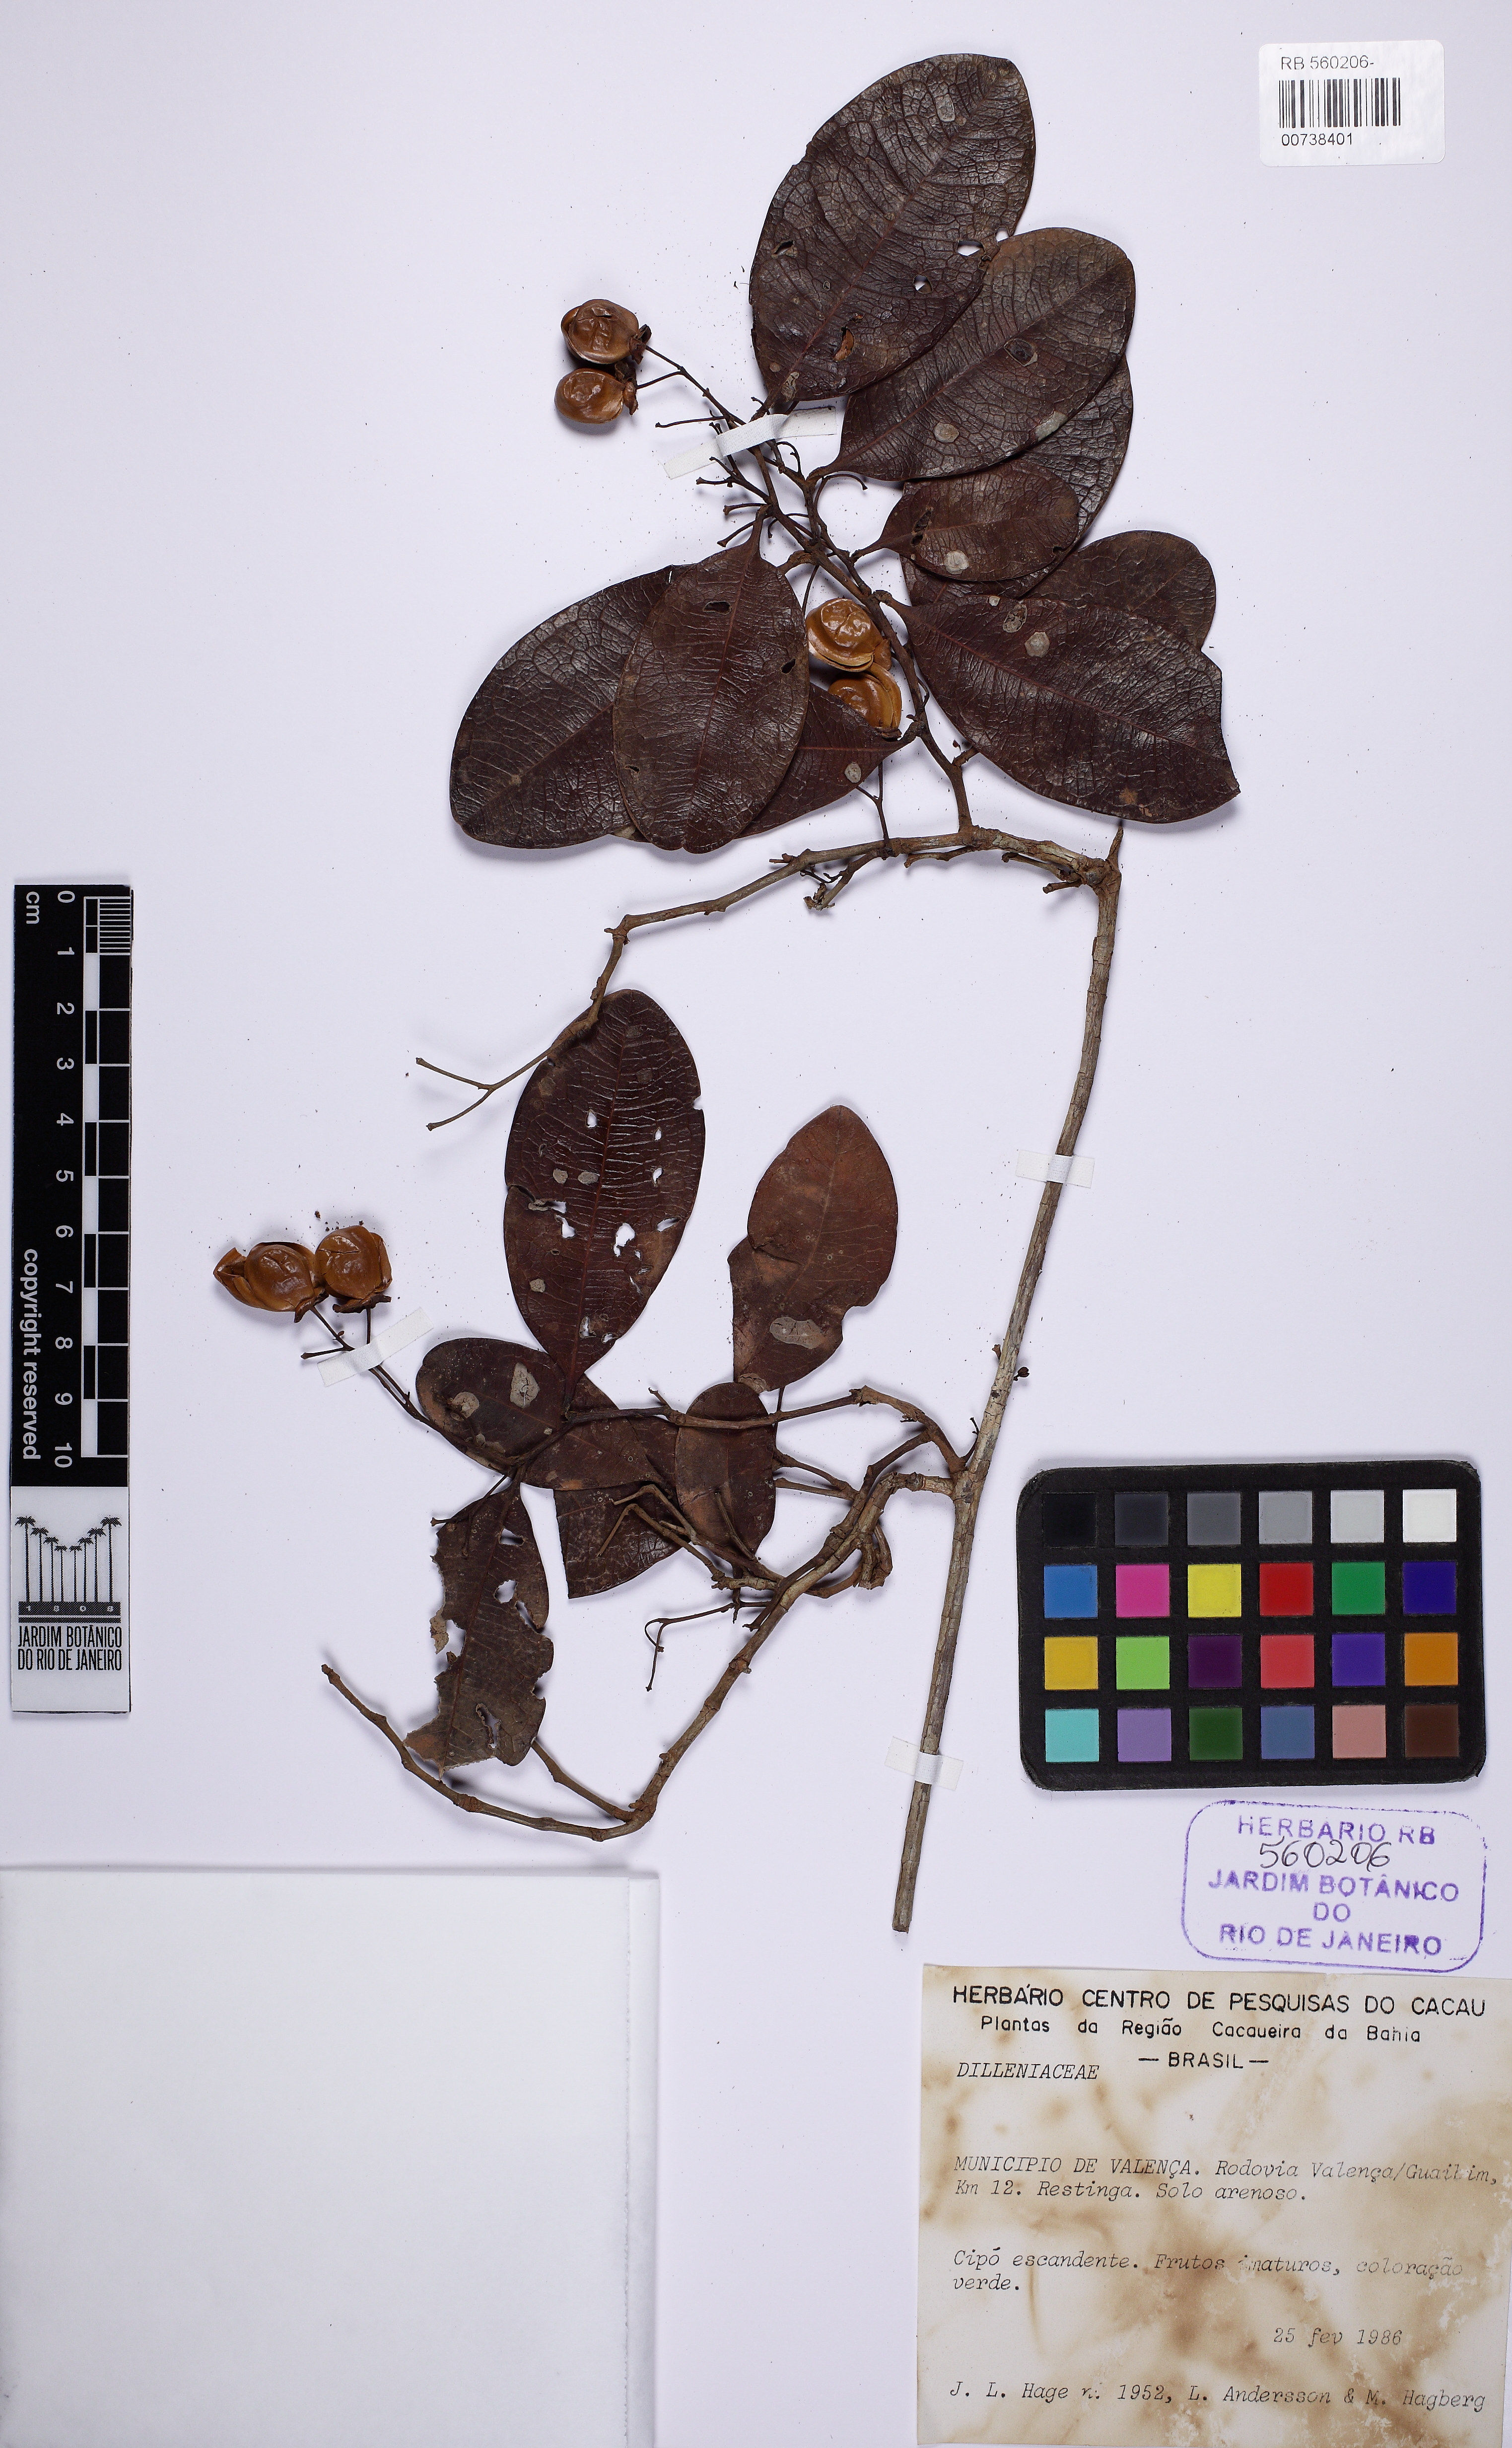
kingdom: Plantae
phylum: Tracheophyta
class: Magnoliopsida
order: Dilleniales
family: Dilleniaceae
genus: Davilla
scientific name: Davilla flexuosa
